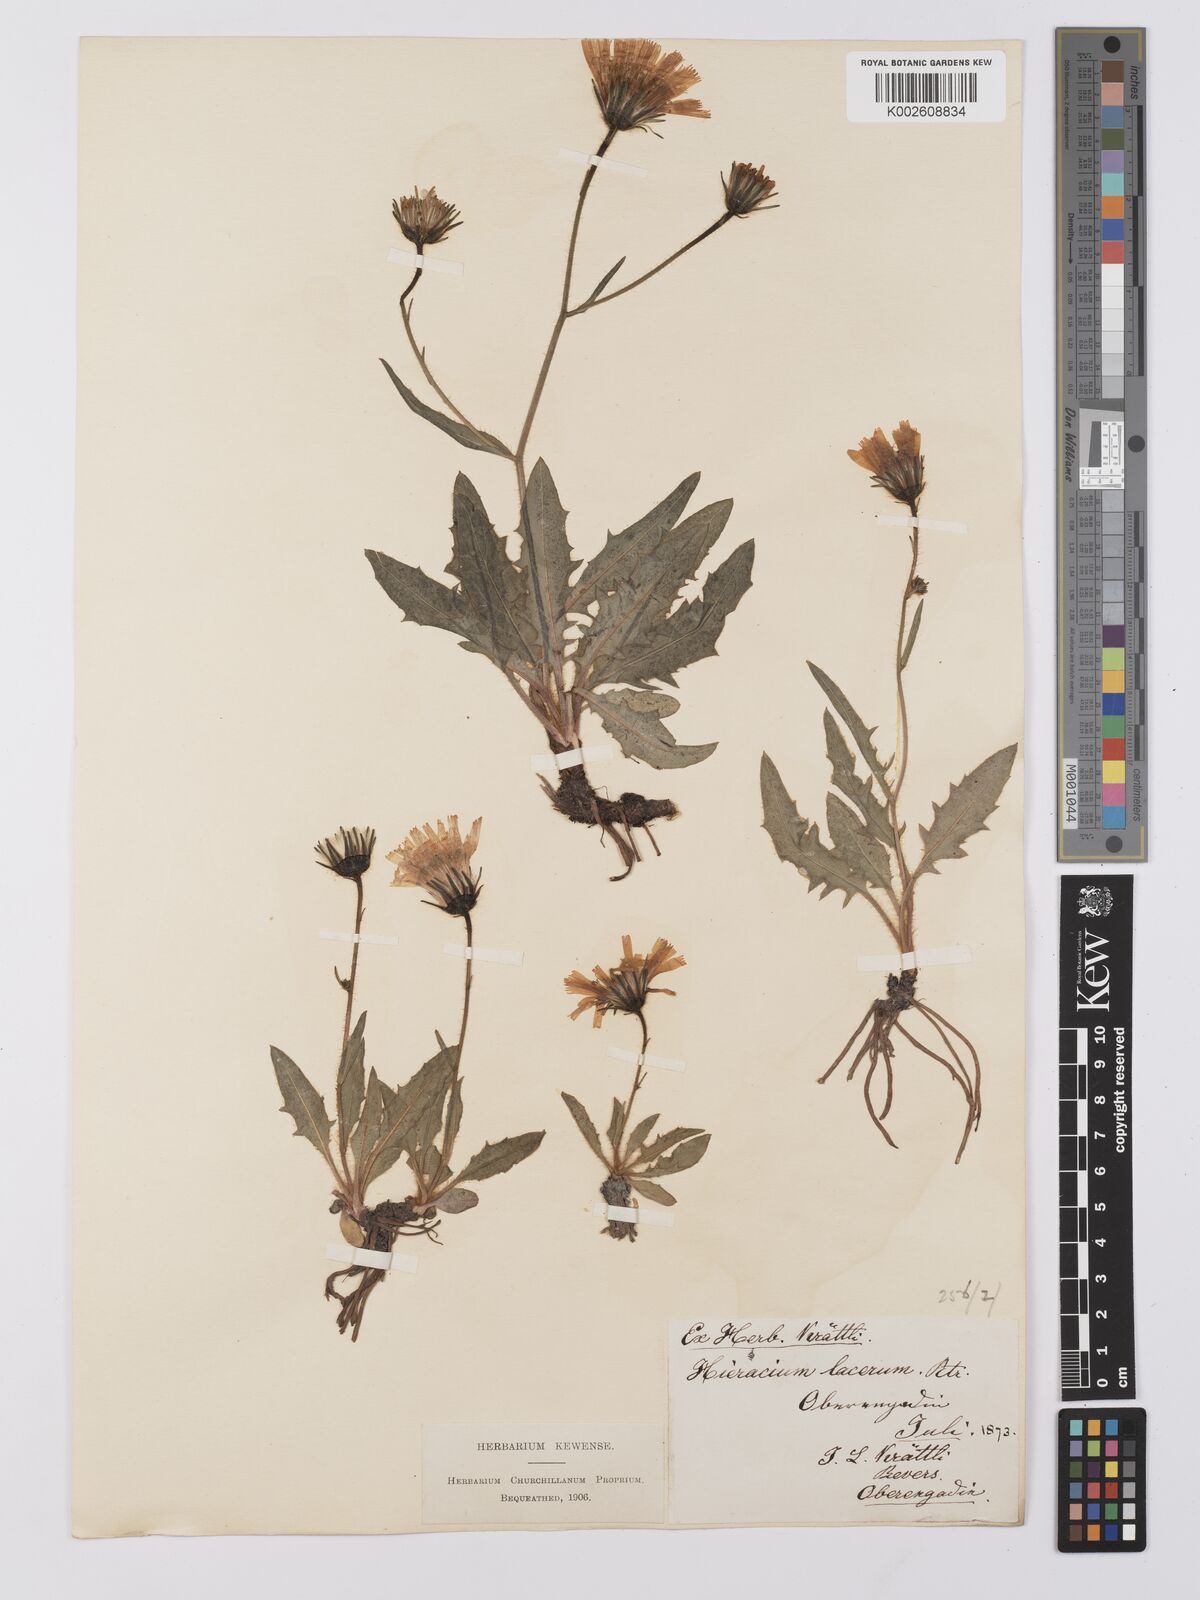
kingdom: Plantae
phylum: Tracheophyta
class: Magnoliopsida
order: Asterales
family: Asteraceae
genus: Hieracium
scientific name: Hieracium cottetii
